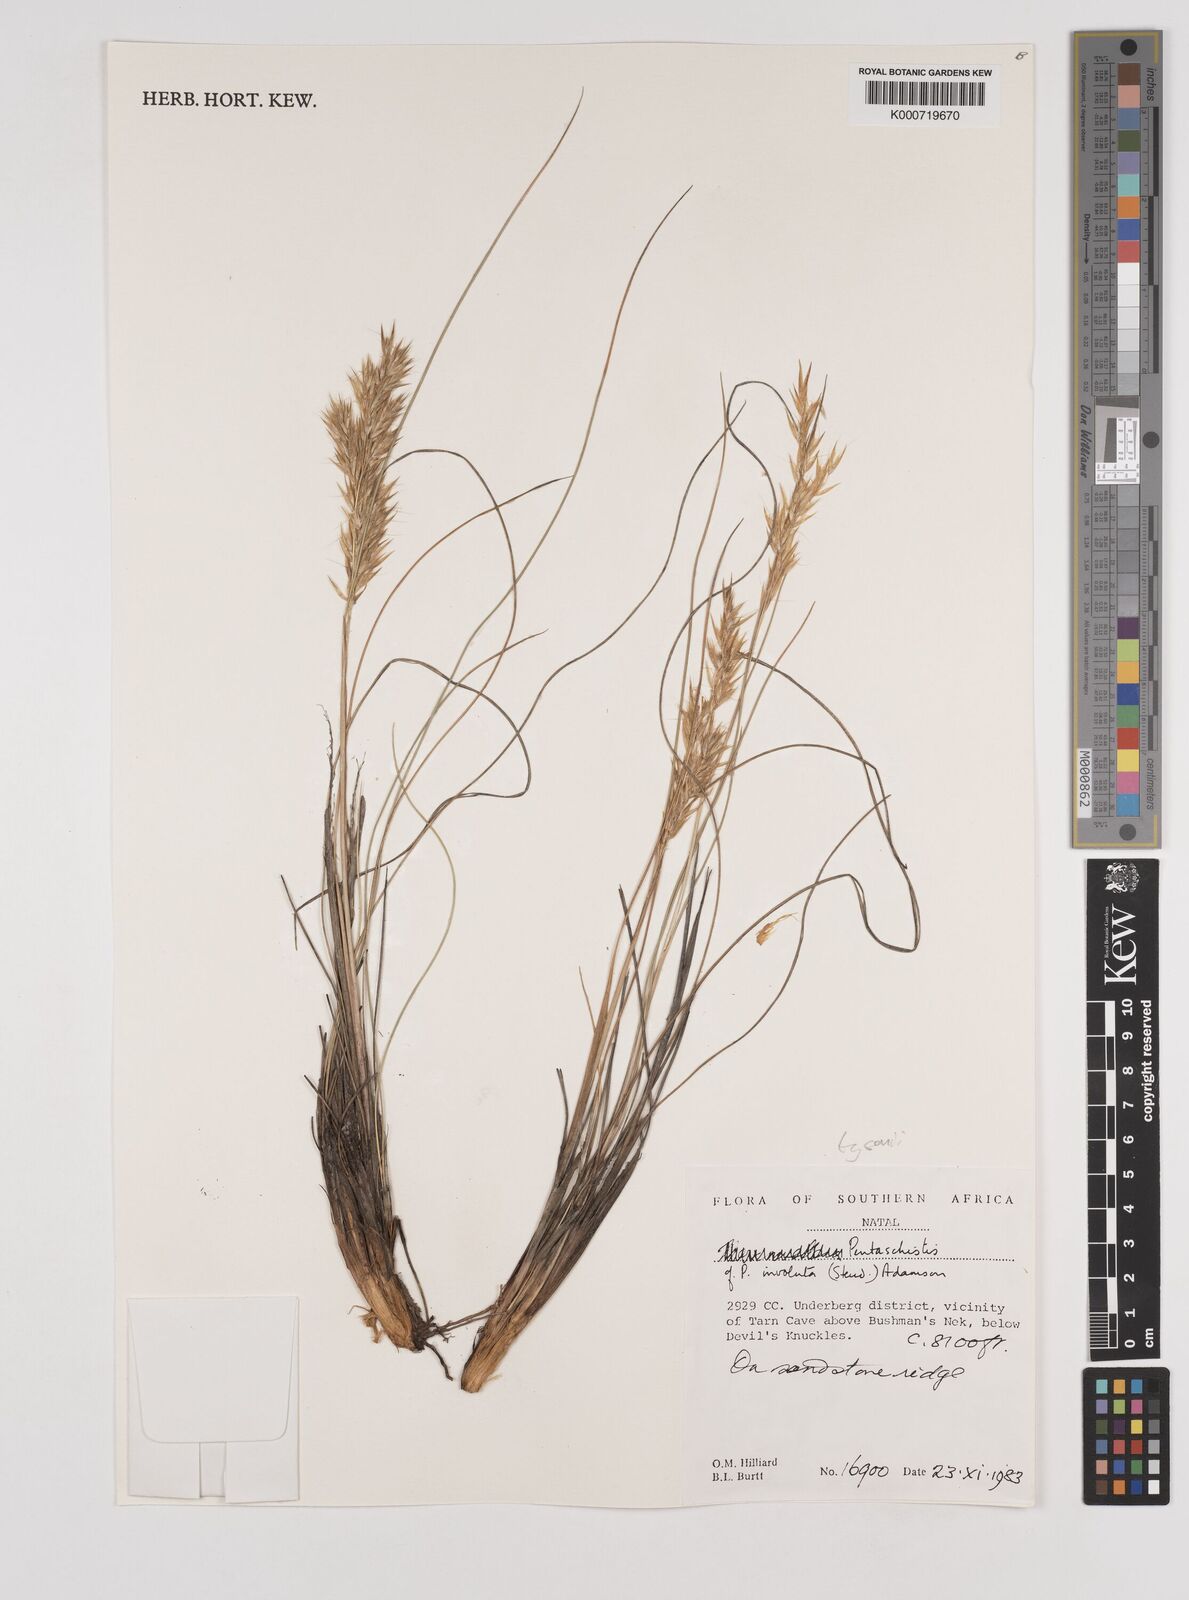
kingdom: Plantae
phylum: Tracheophyta
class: Liliopsida
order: Poales
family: Poaceae
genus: Pentameris
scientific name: Pentameris tysonii
